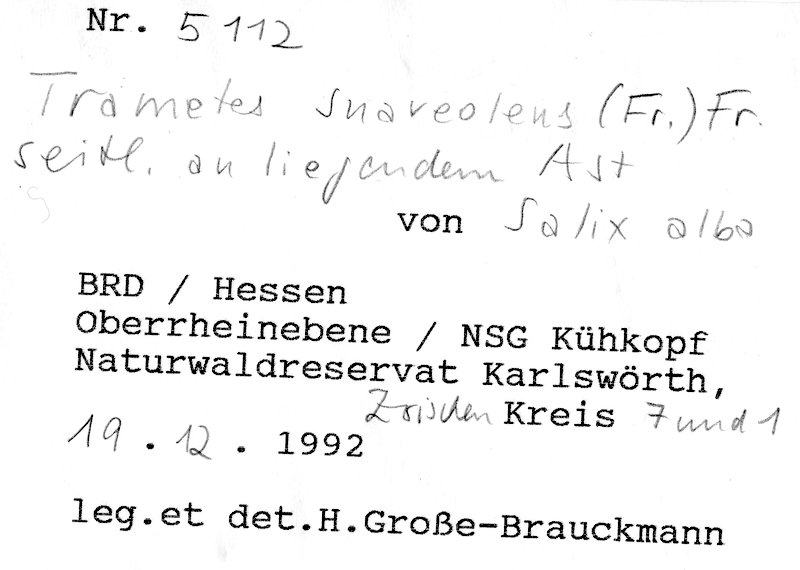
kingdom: Plantae
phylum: Tracheophyta
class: Magnoliopsida
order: Malpighiales
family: Salicaceae
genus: Salix
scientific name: Salix alba
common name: White willow
